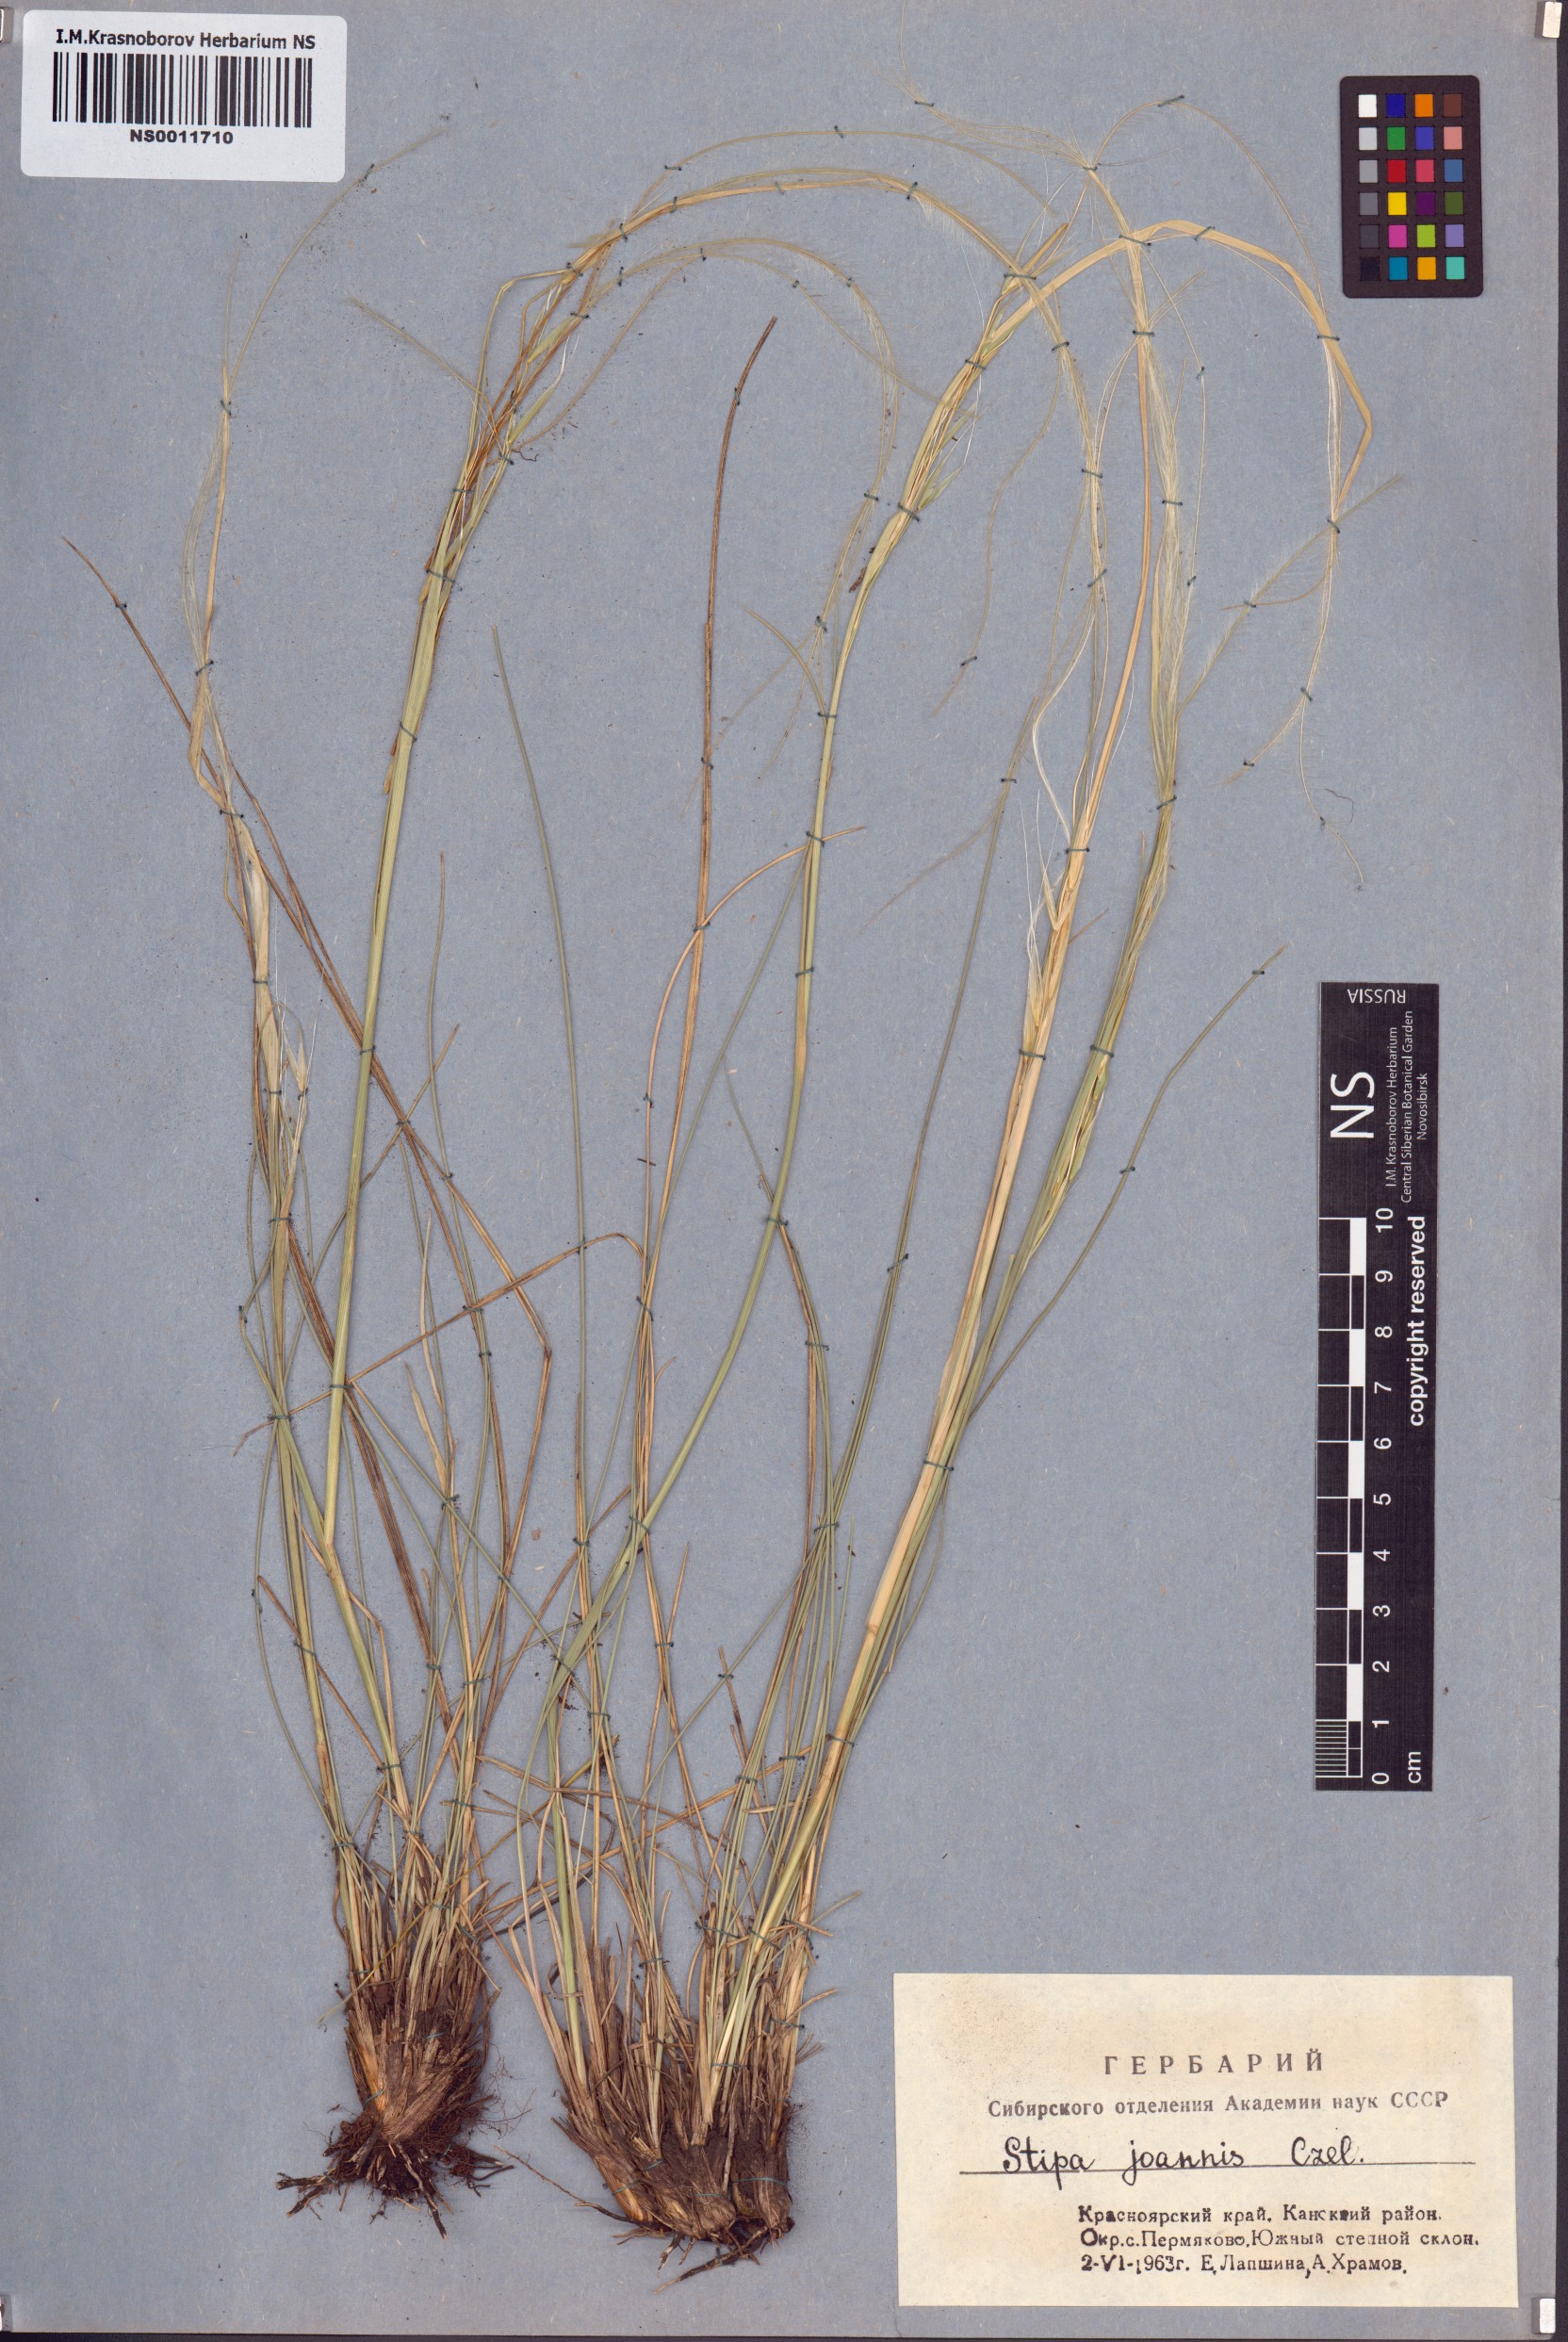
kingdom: Plantae
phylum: Tracheophyta
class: Liliopsida
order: Poales
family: Poaceae
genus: Stipa
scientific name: Stipa pennata
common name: European feather grass
